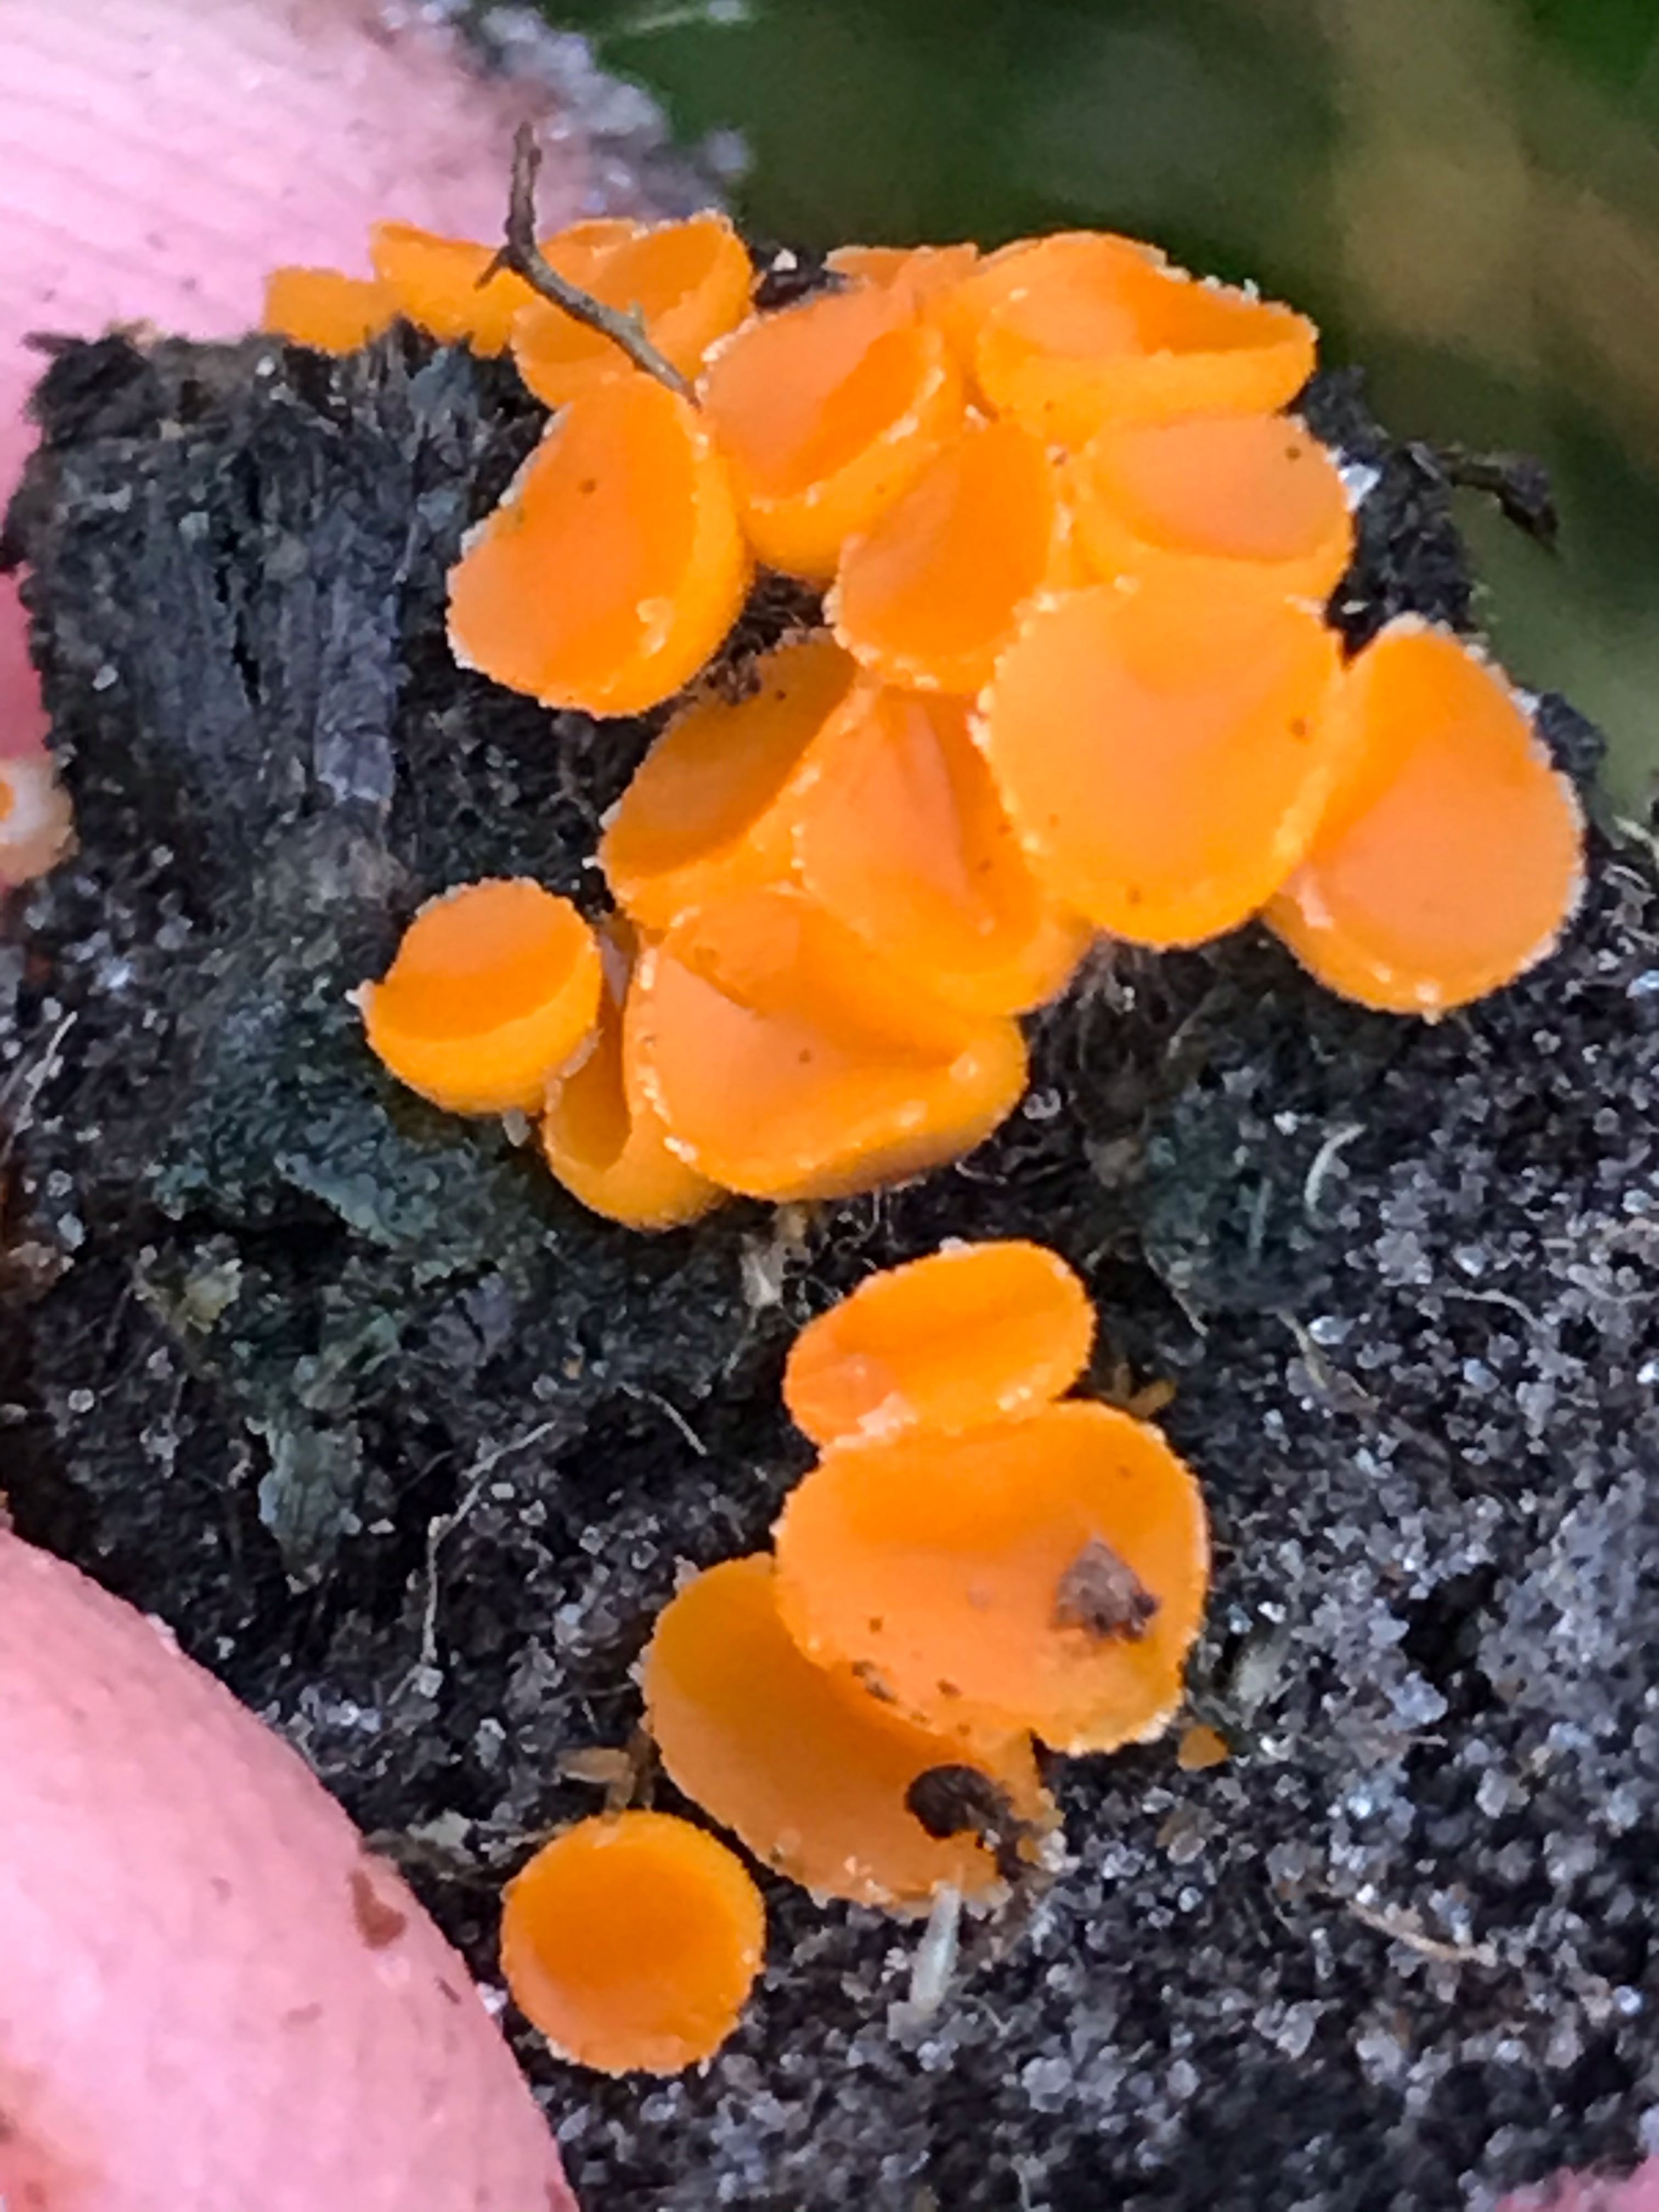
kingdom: Fungi
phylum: Ascomycota
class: Pezizomycetes
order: Pezizales
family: Pyronemataceae
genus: Byssonectria
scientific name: Byssonectria terrestris
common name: hjortebæger
